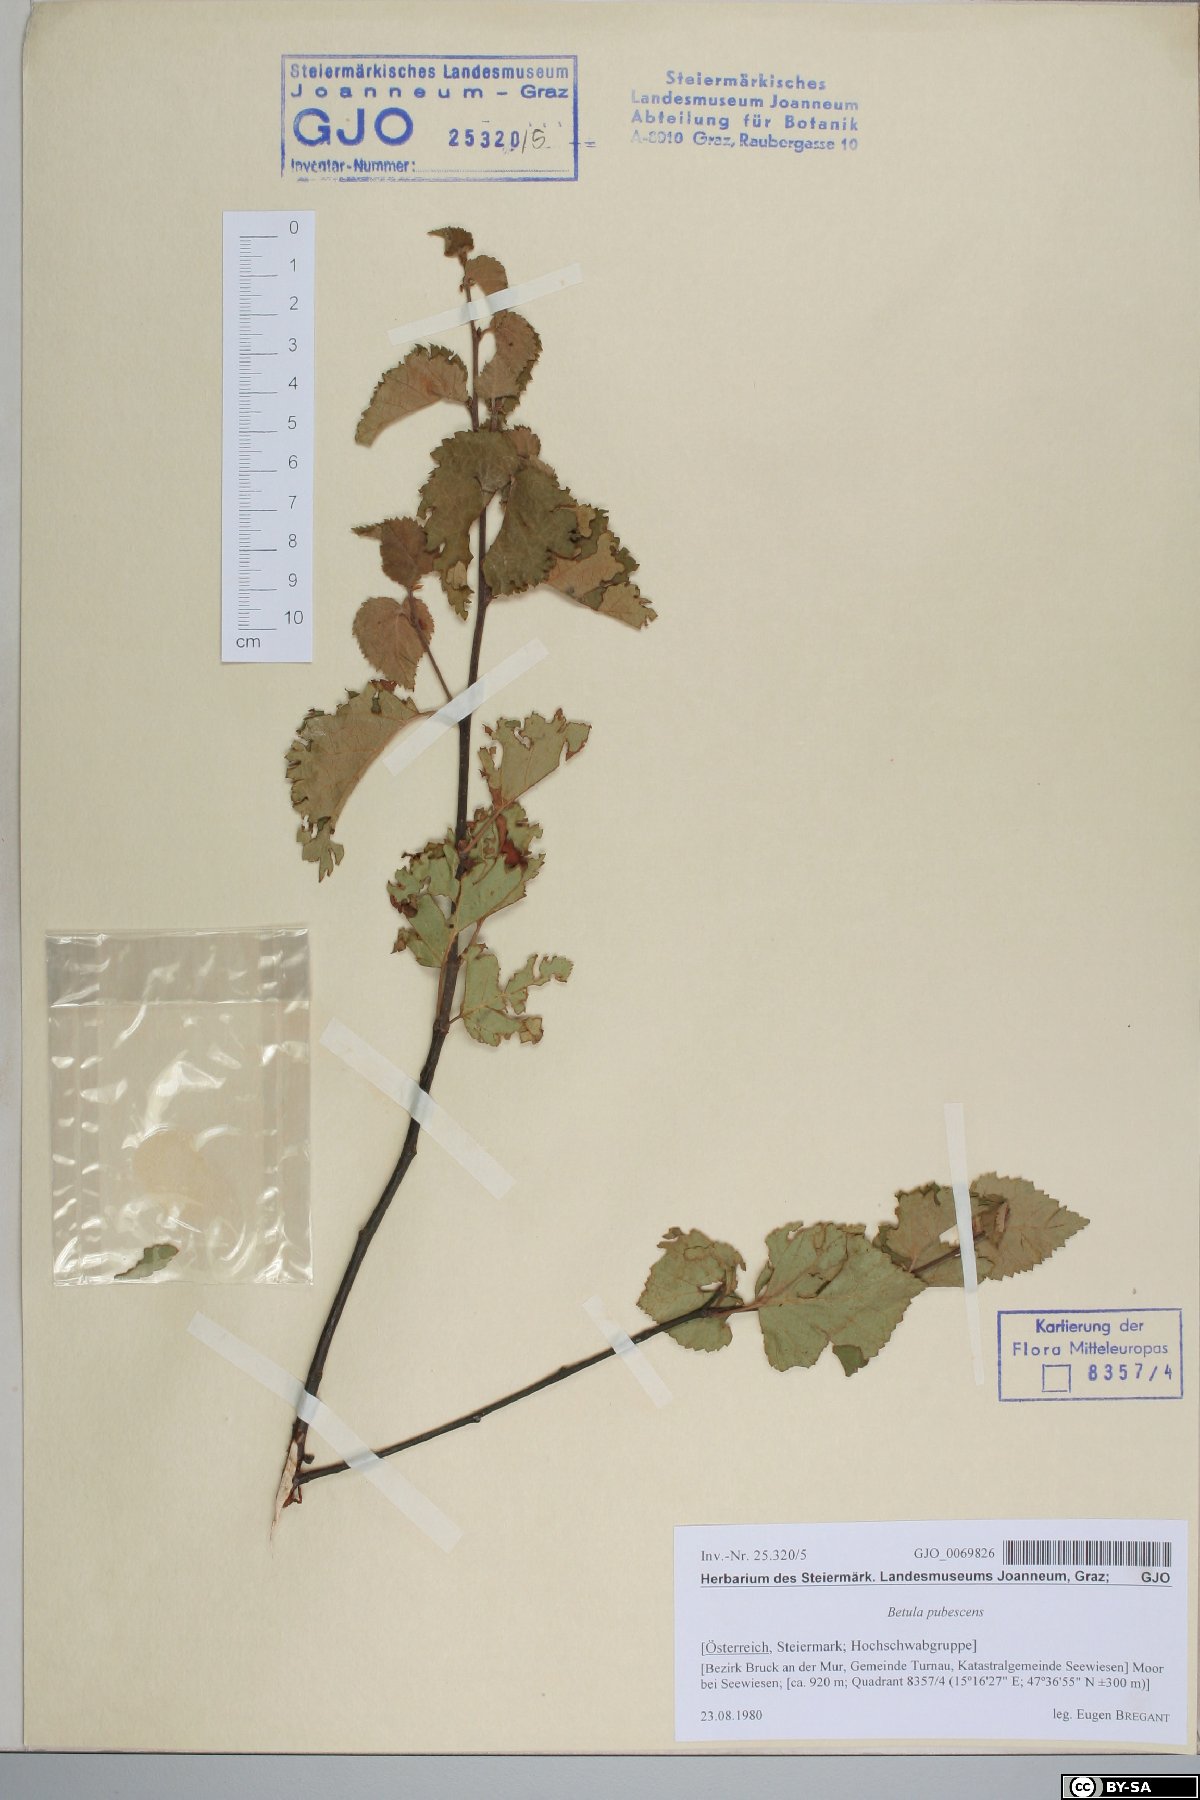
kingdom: Plantae
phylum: Tracheophyta
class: Magnoliopsida
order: Fagales
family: Betulaceae
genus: Betula
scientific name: Betula pubescens
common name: Downy birch
